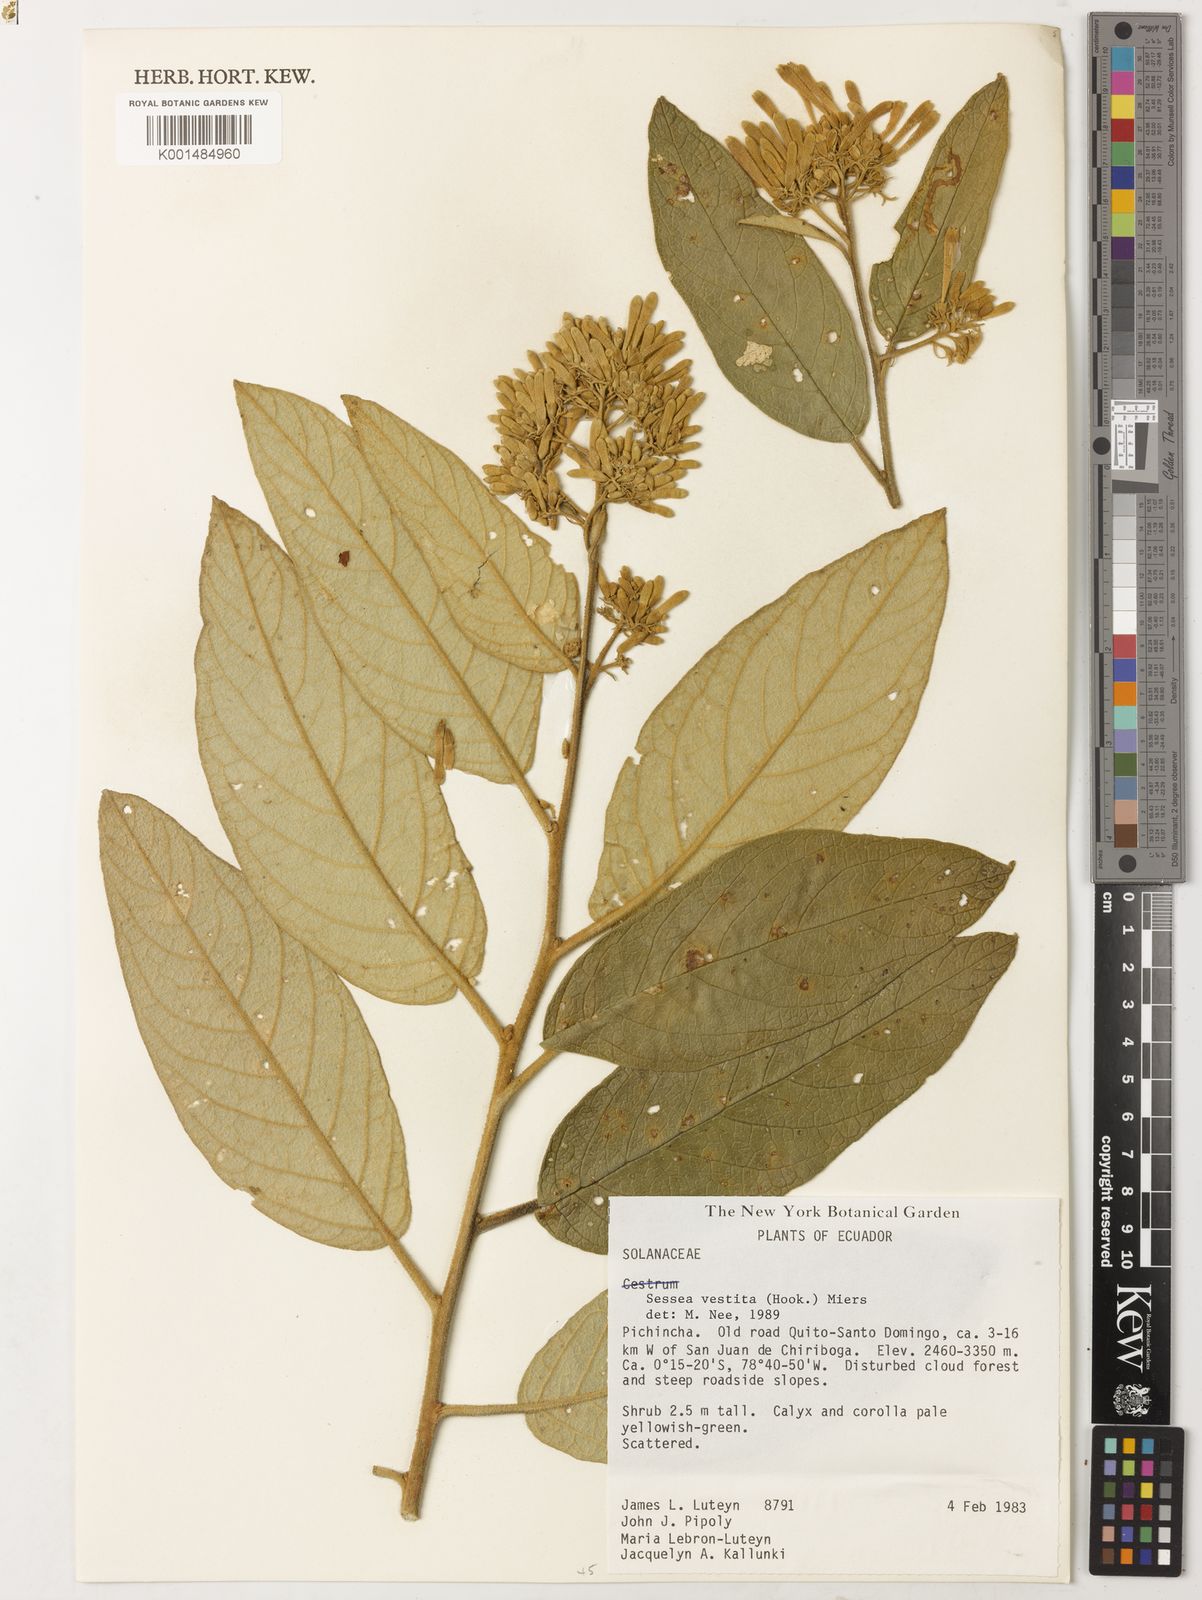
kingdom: Plantae
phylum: Tracheophyta
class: Magnoliopsida
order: Solanales
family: Solanaceae
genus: Sessea
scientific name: Sessea vestita
